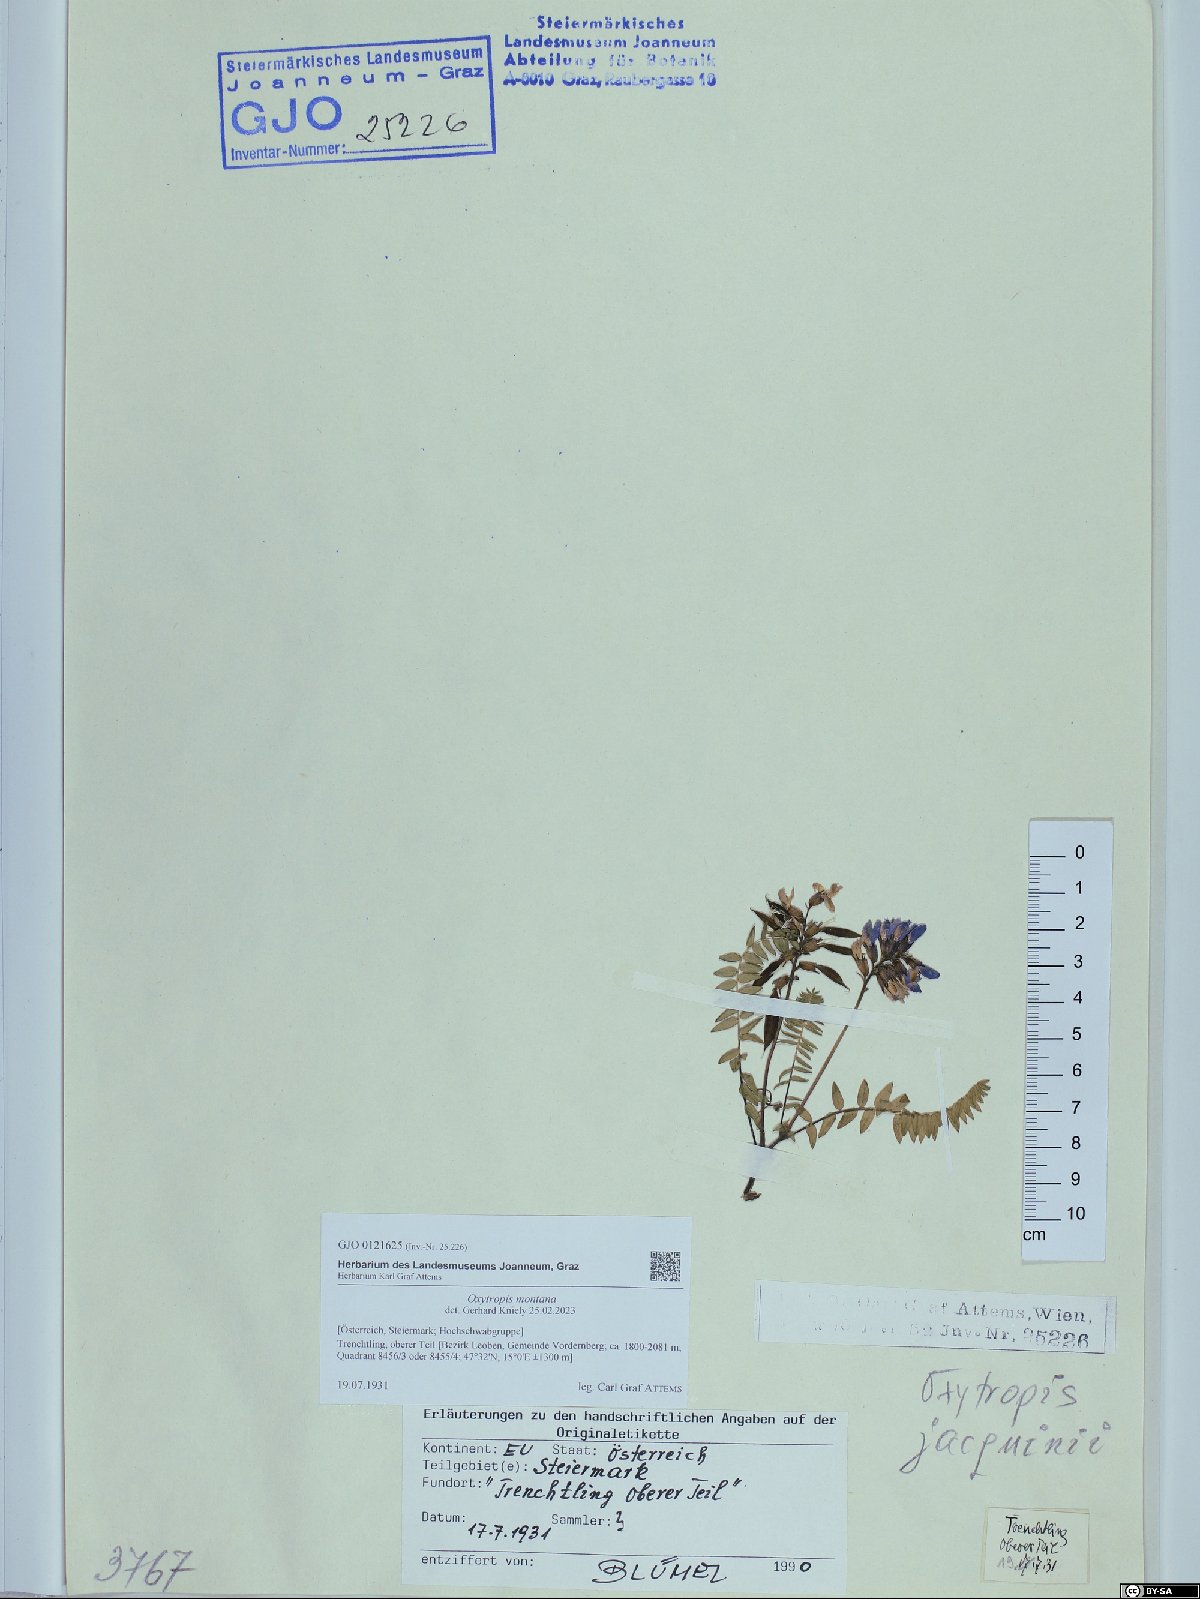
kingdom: Plantae
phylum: Tracheophyta
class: Magnoliopsida
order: Fabales
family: Fabaceae
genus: Oxytropis
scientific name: Oxytropis montana
